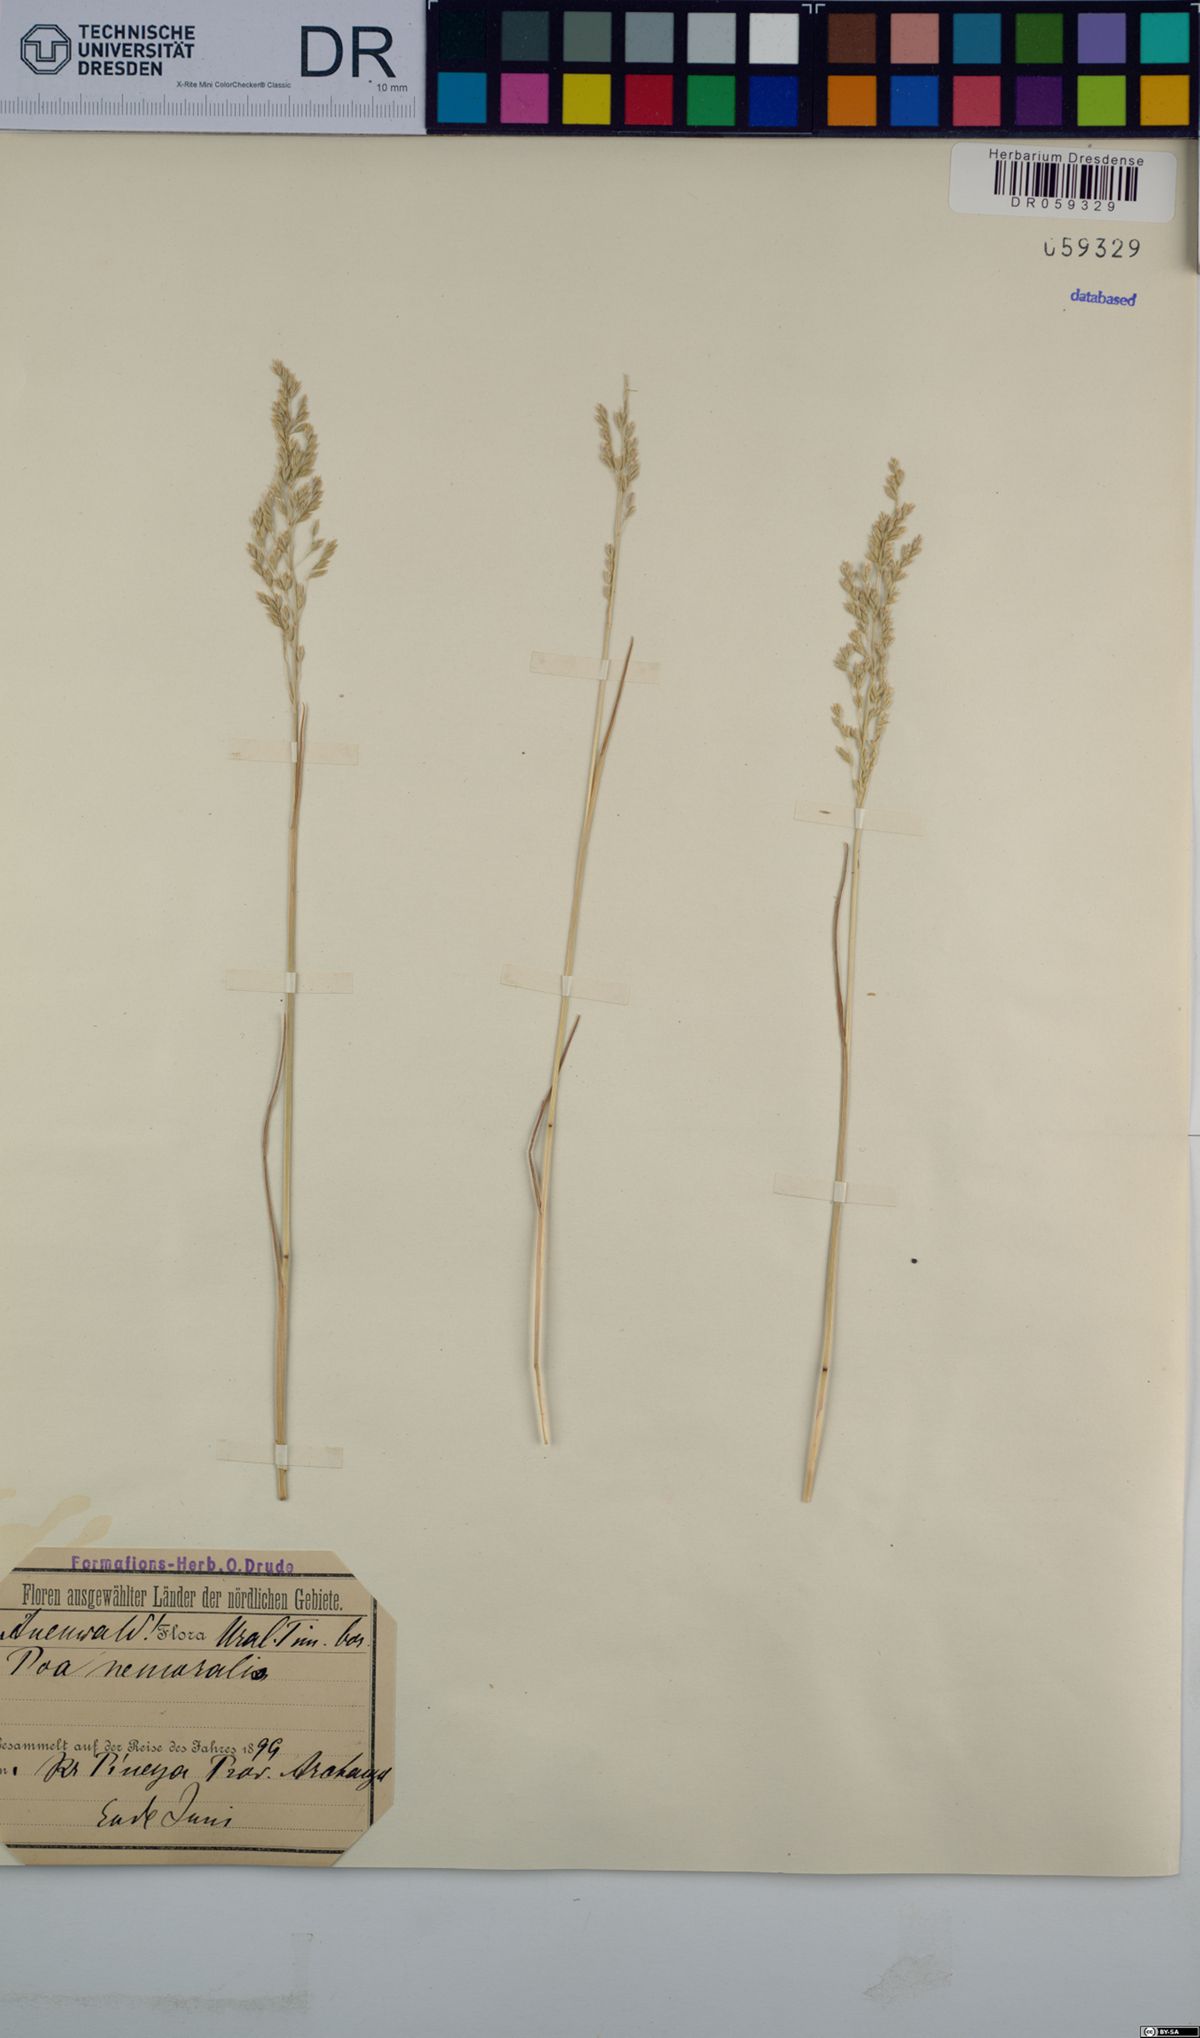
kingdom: Plantae
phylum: Tracheophyta
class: Liliopsida
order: Poales
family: Poaceae
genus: Poa
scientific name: Poa nemoralis
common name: Wood bluegrass
